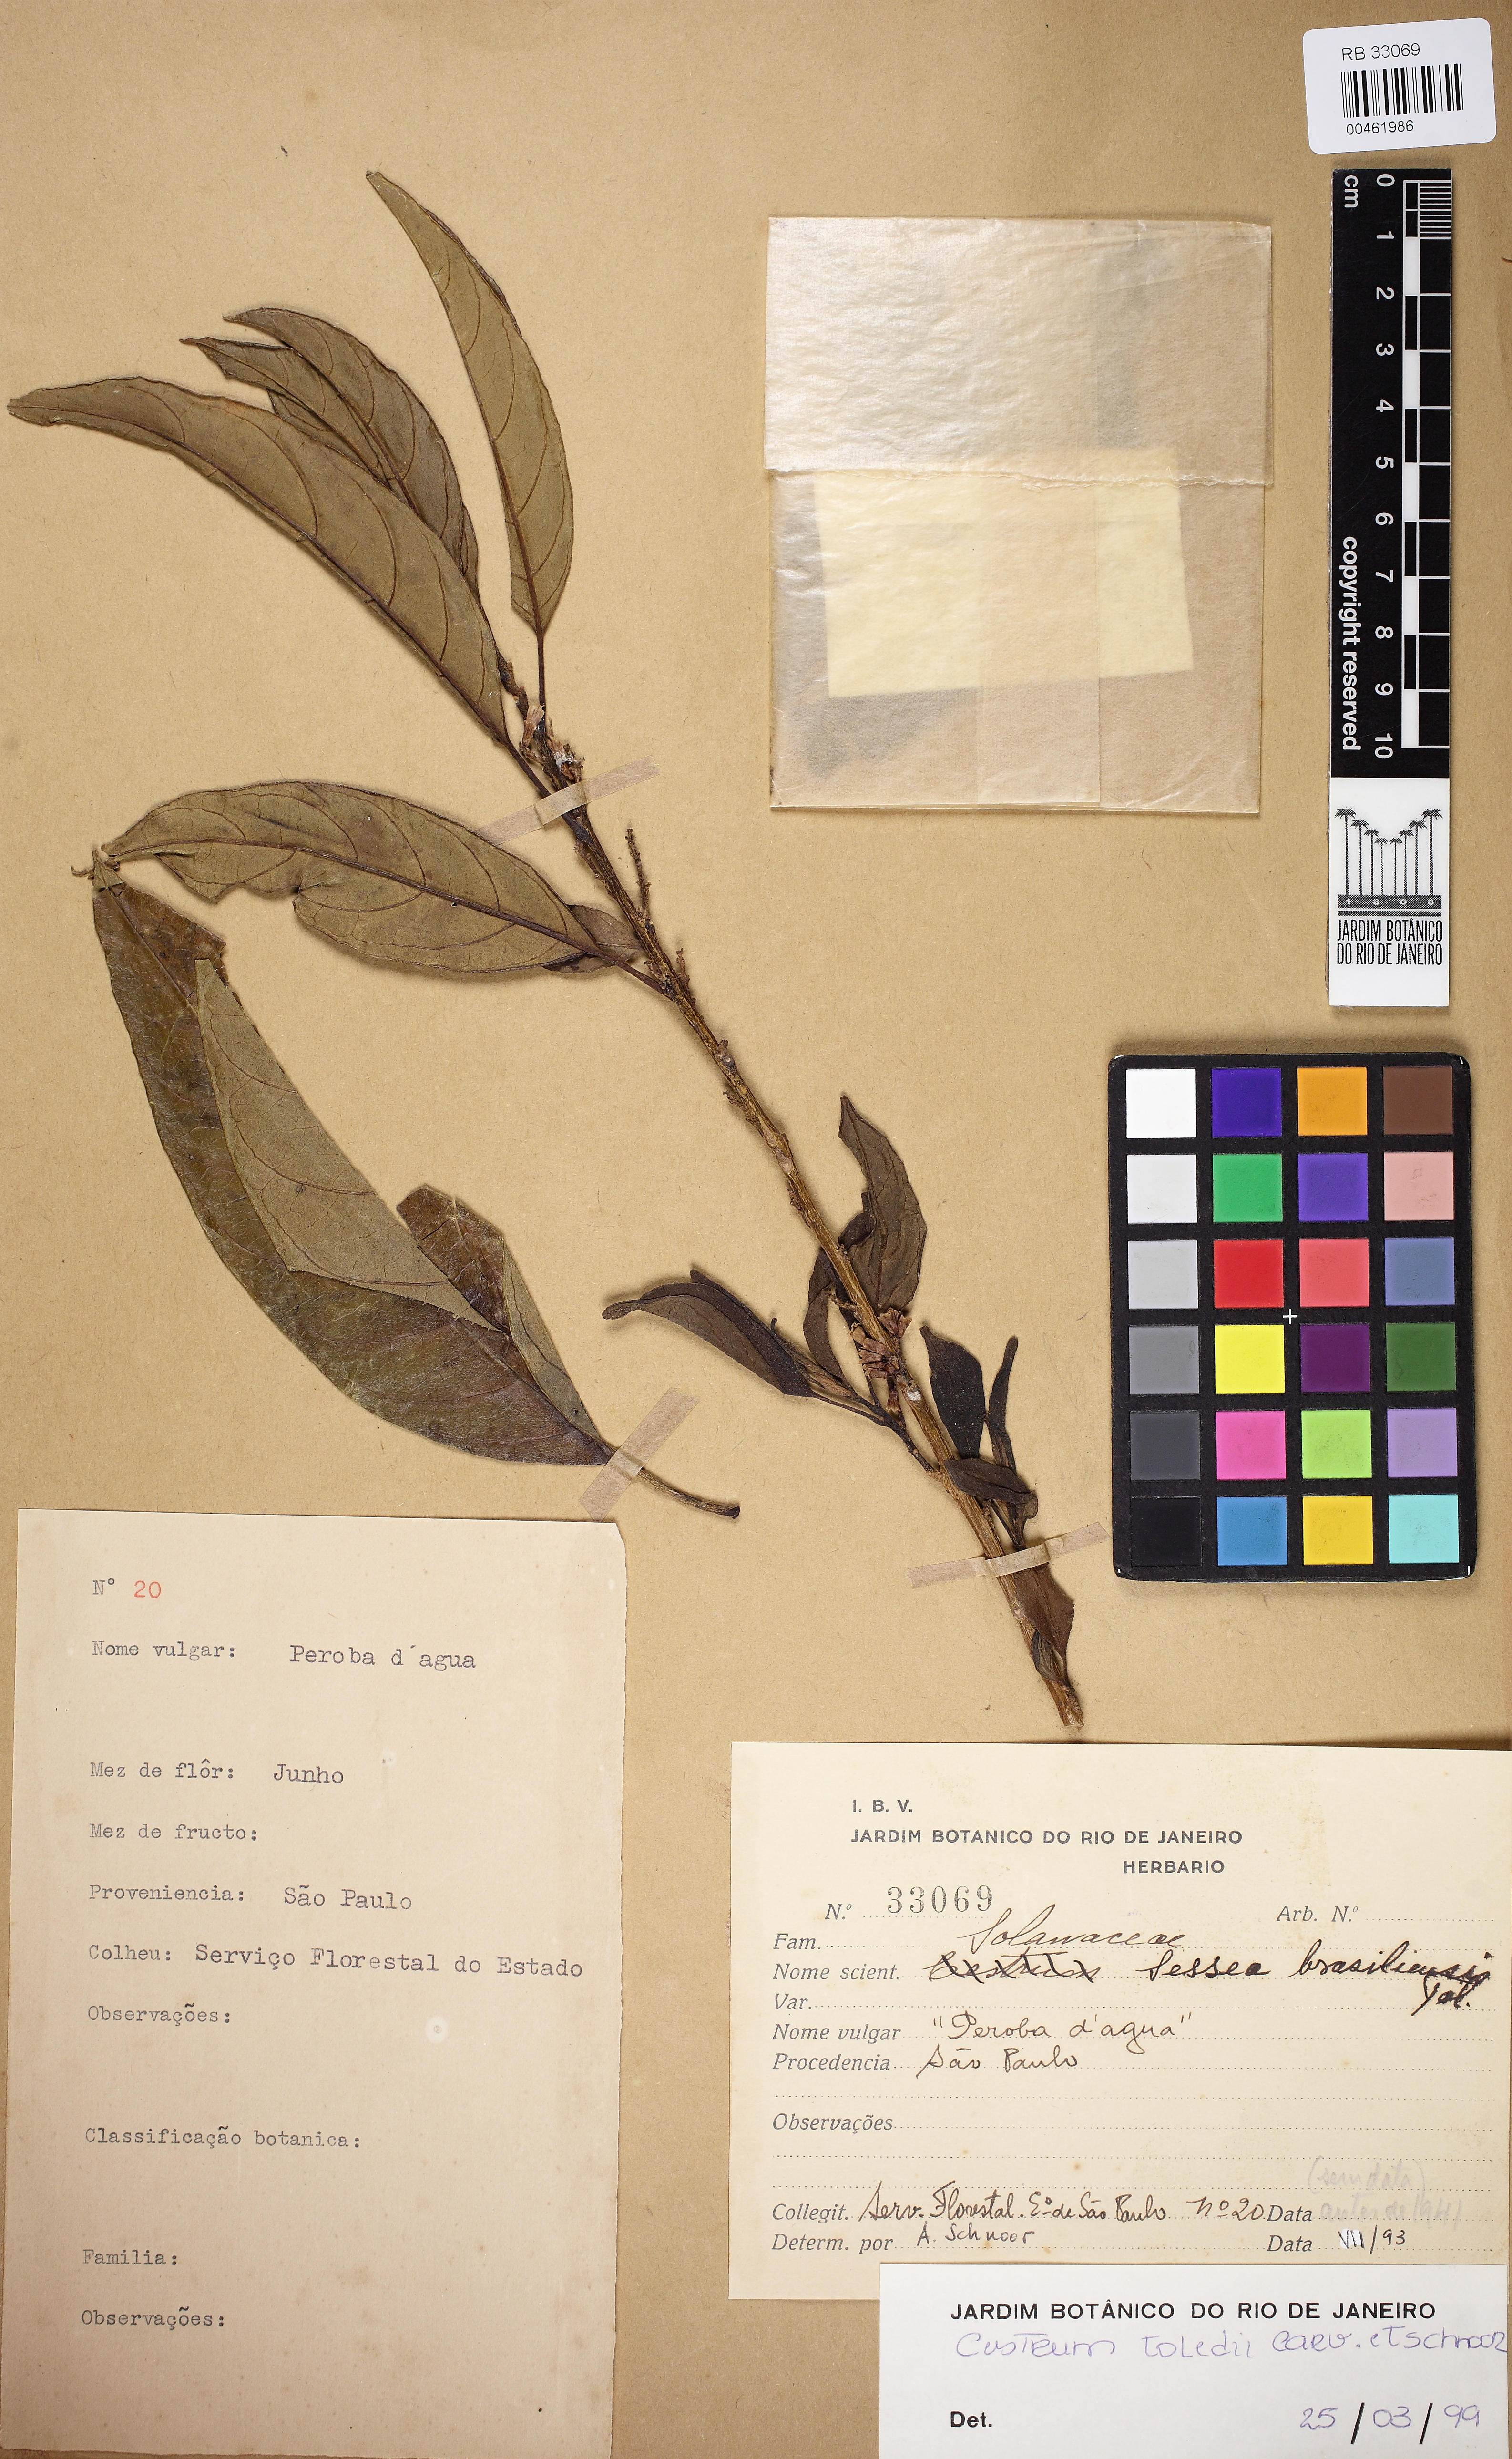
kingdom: Plantae
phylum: Tracheophyta
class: Magnoliopsida
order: Solanales
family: Solanaceae
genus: Cestrum
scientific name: Cestrum toledii
